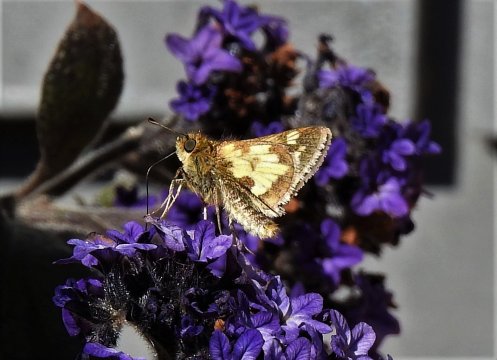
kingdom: Animalia
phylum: Arthropoda
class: Insecta
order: Lepidoptera
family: Hesperiidae
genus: Polites
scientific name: Polites coras
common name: Peck's Skipper
